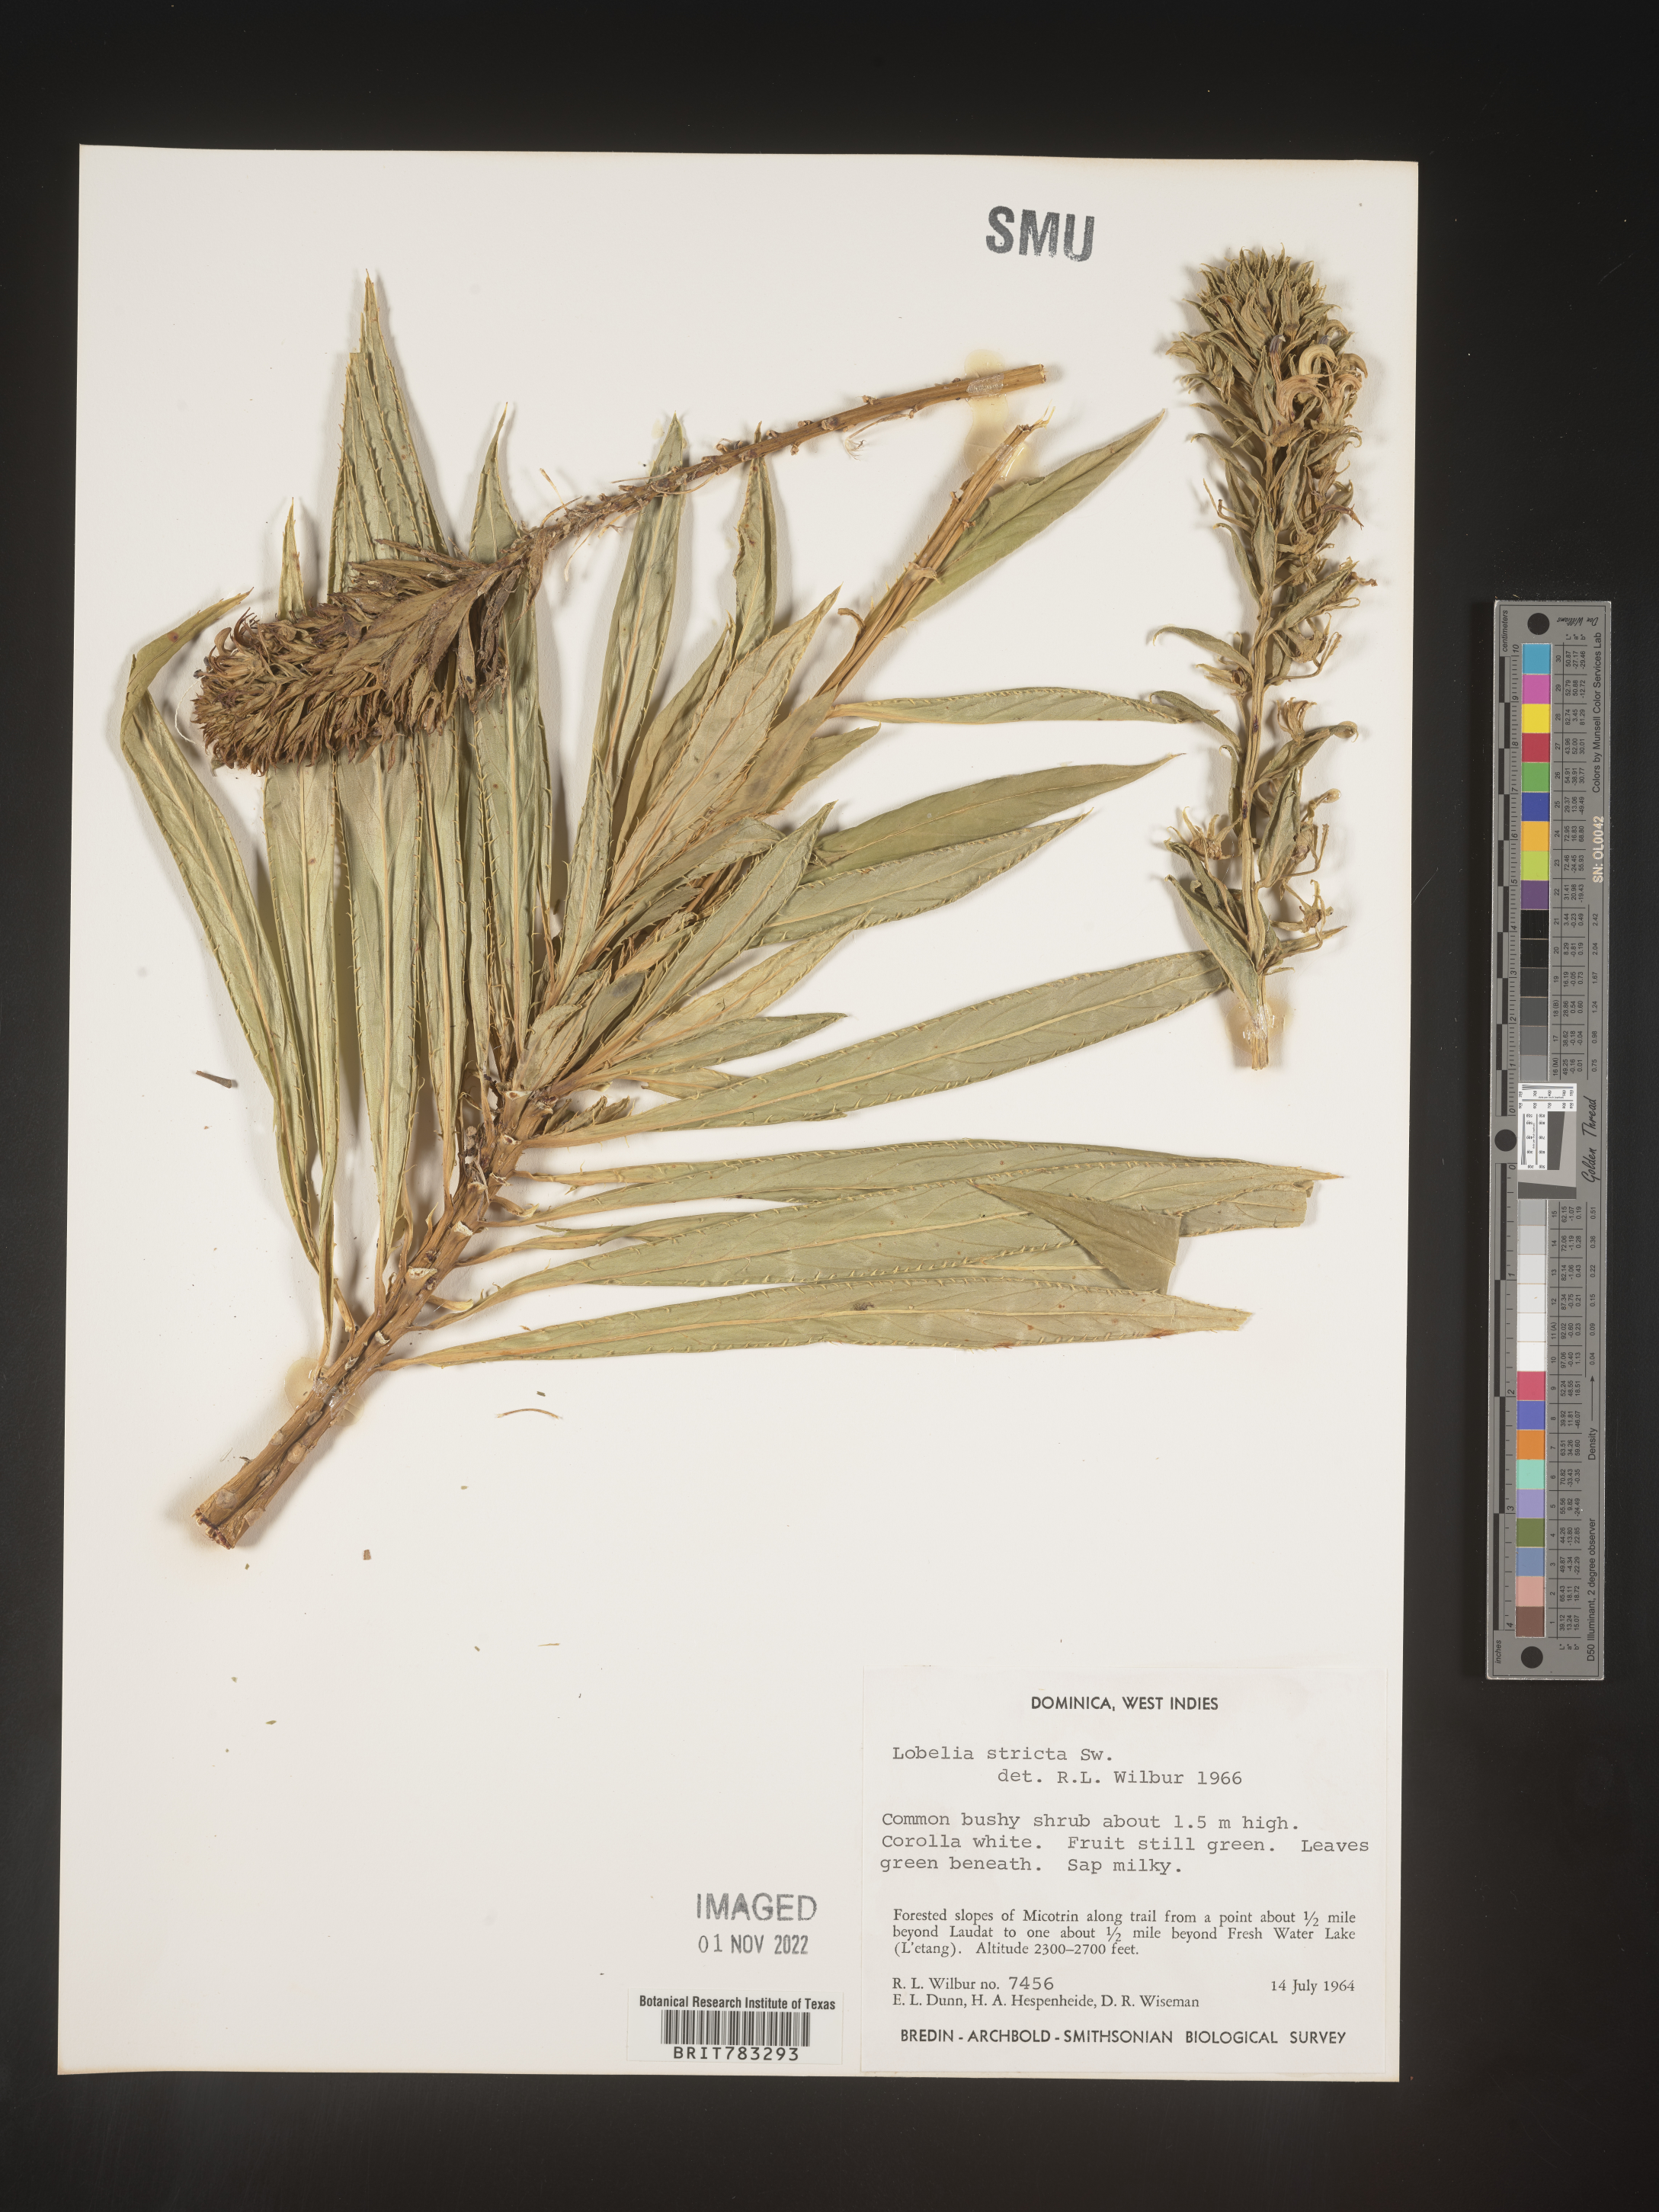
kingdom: Plantae
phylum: Tracheophyta
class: Magnoliopsida
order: Asterales
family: Campanulaceae
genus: Lobelia
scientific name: Lobelia
